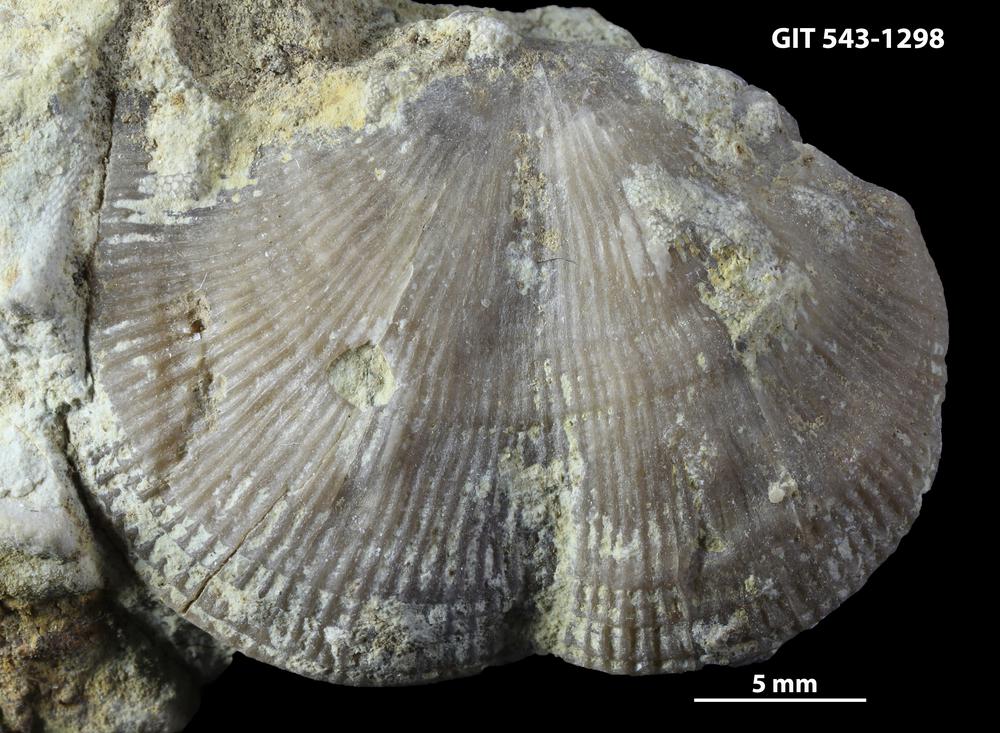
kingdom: Animalia
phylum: Brachiopoda
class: Rhynchonellata
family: Clitambonitidae
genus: Vellamo
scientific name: Vellamo oandoensis
